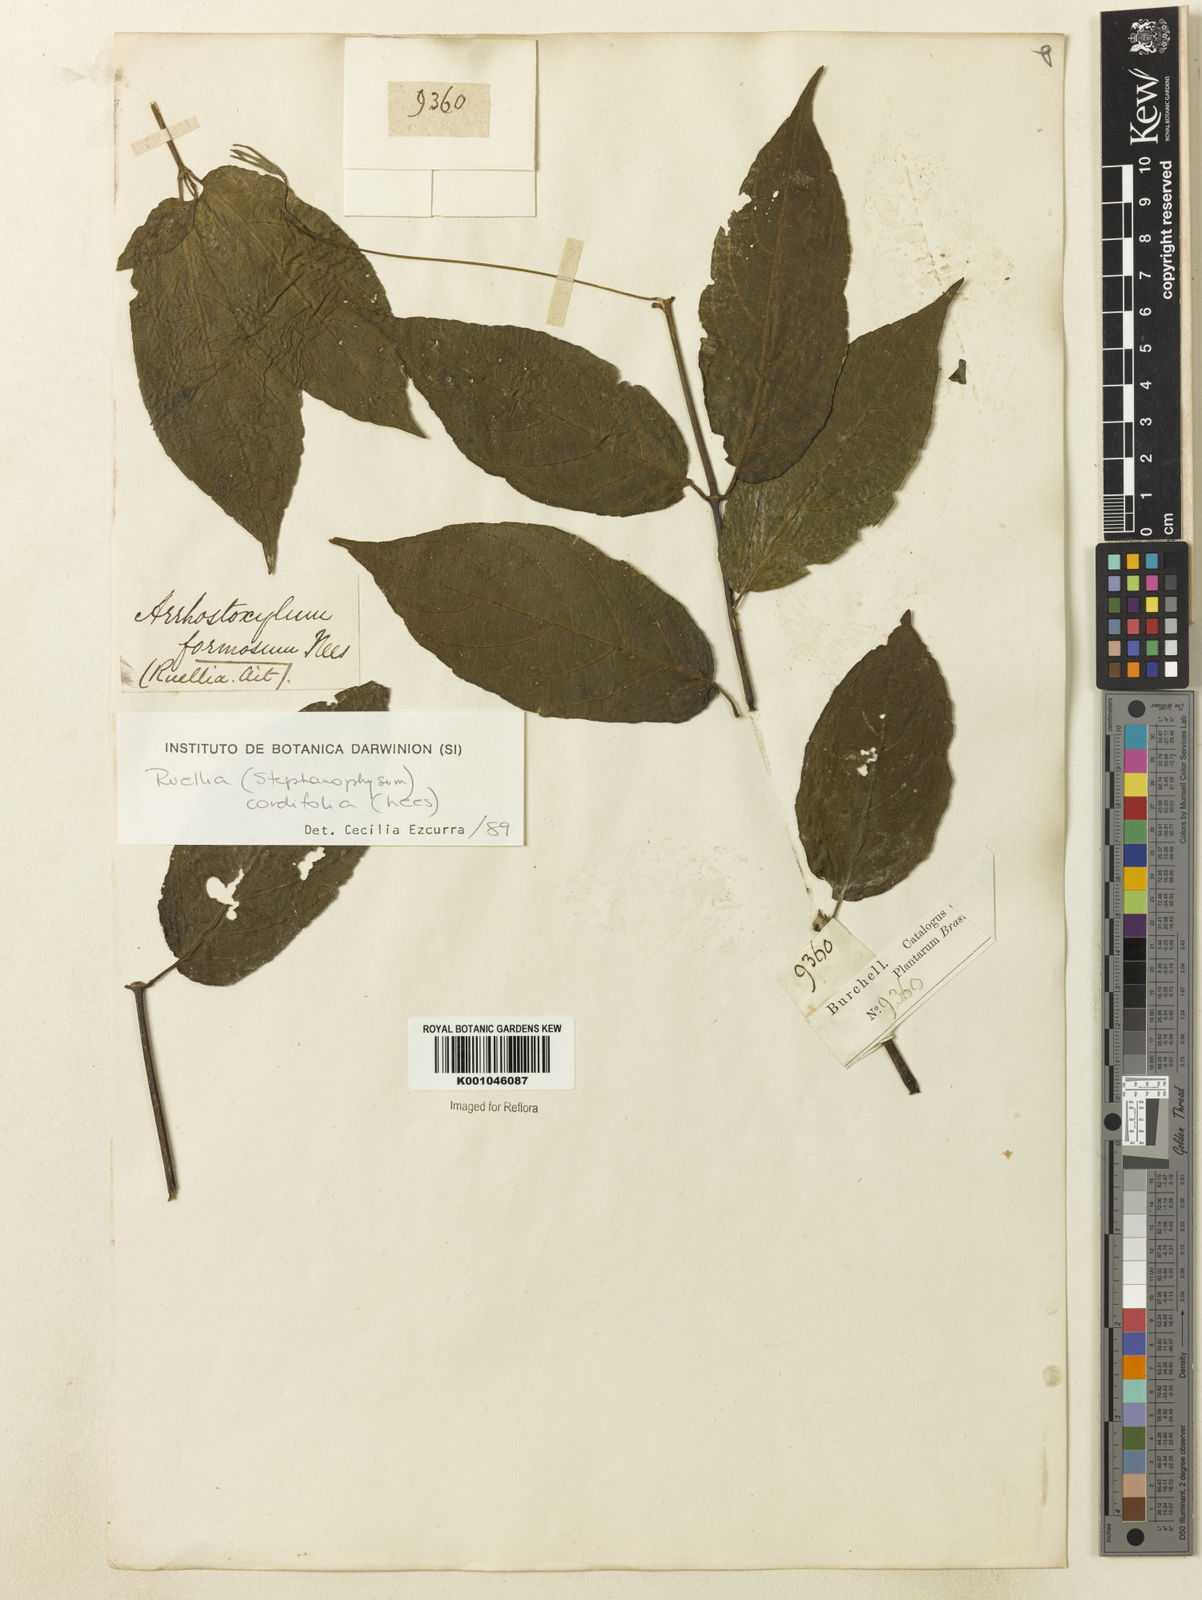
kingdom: Plantae
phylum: Tracheophyta
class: Magnoliopsida
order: Lamiales
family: Acanthaceae
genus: Ruellia
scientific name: Ruellia inflata
